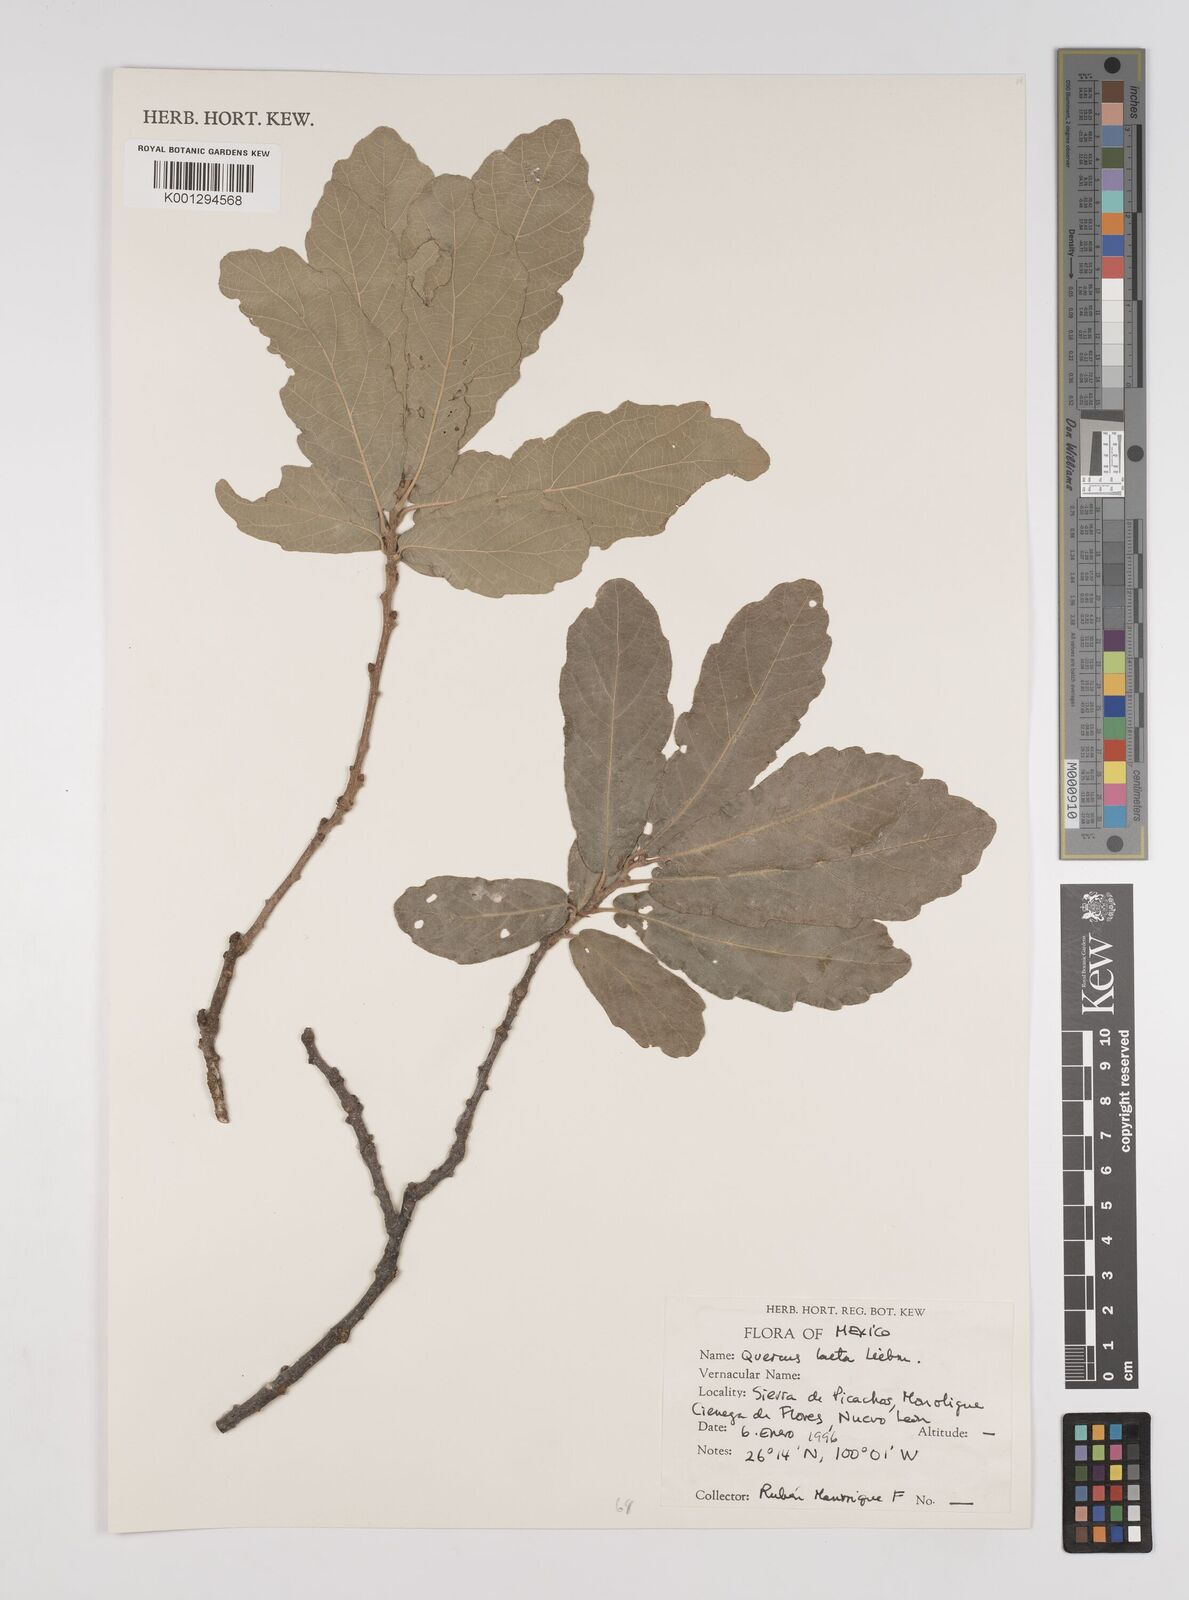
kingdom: Plantae
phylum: Tracheophyta
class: Magnoliopsida
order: Fagales
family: Fagaceae
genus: Quercus
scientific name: Quercus laeta
